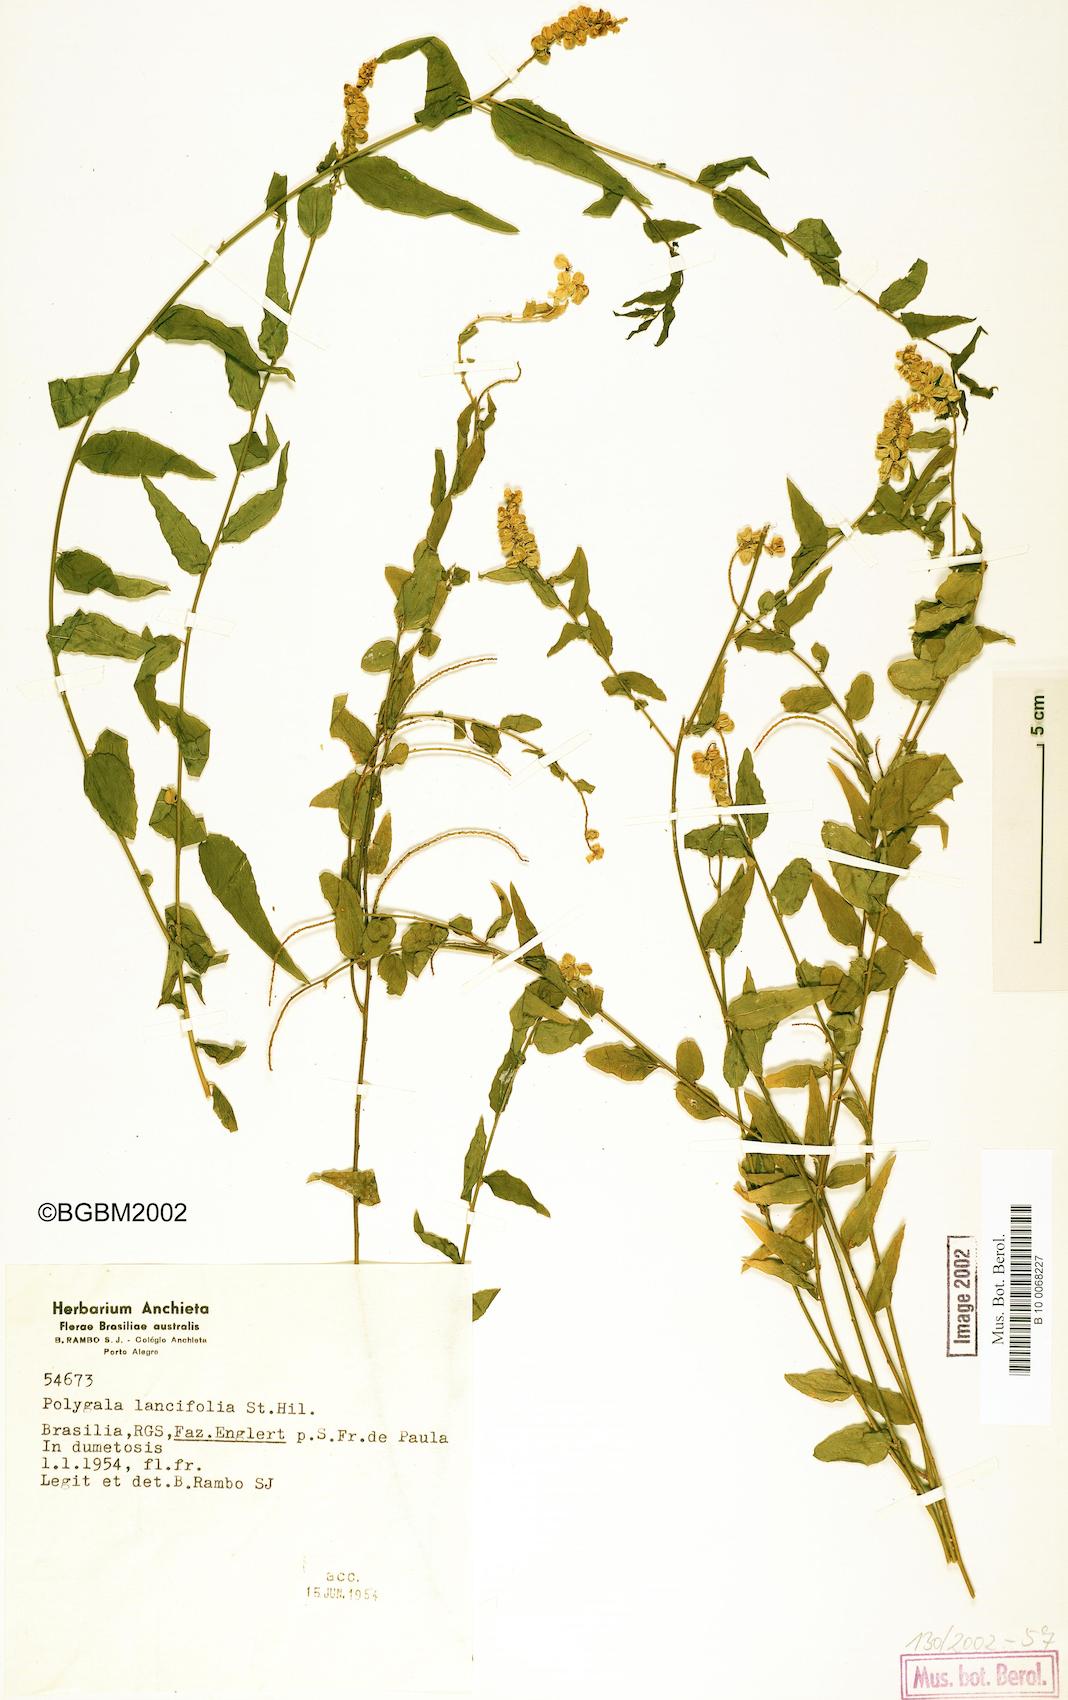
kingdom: Plantae
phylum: Tracheophyta
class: Magnoliopsida
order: Fabales
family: Polygalaceae
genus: Polygala
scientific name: Polygala lancifolia
